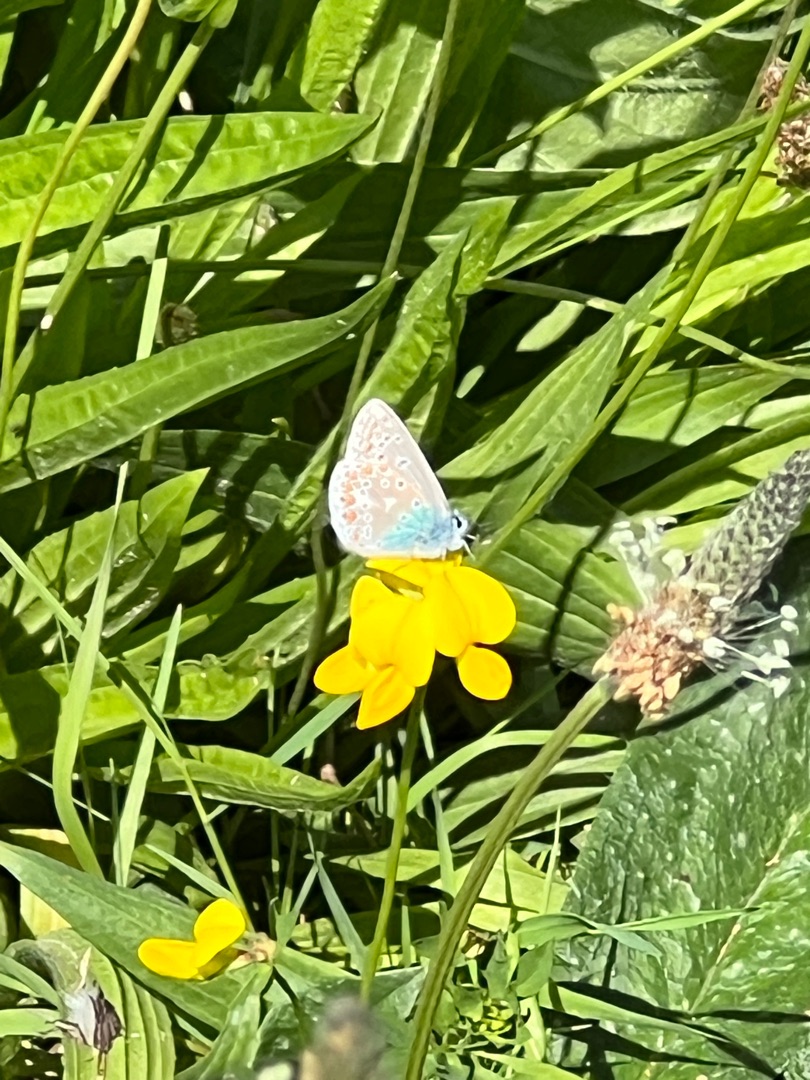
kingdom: Animalia
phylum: Arthropoda
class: Insecta
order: Lepidoptera
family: Lycaenidae
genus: Polyommatus
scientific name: Polyommatus icarus
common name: Almindelig blåfugl
